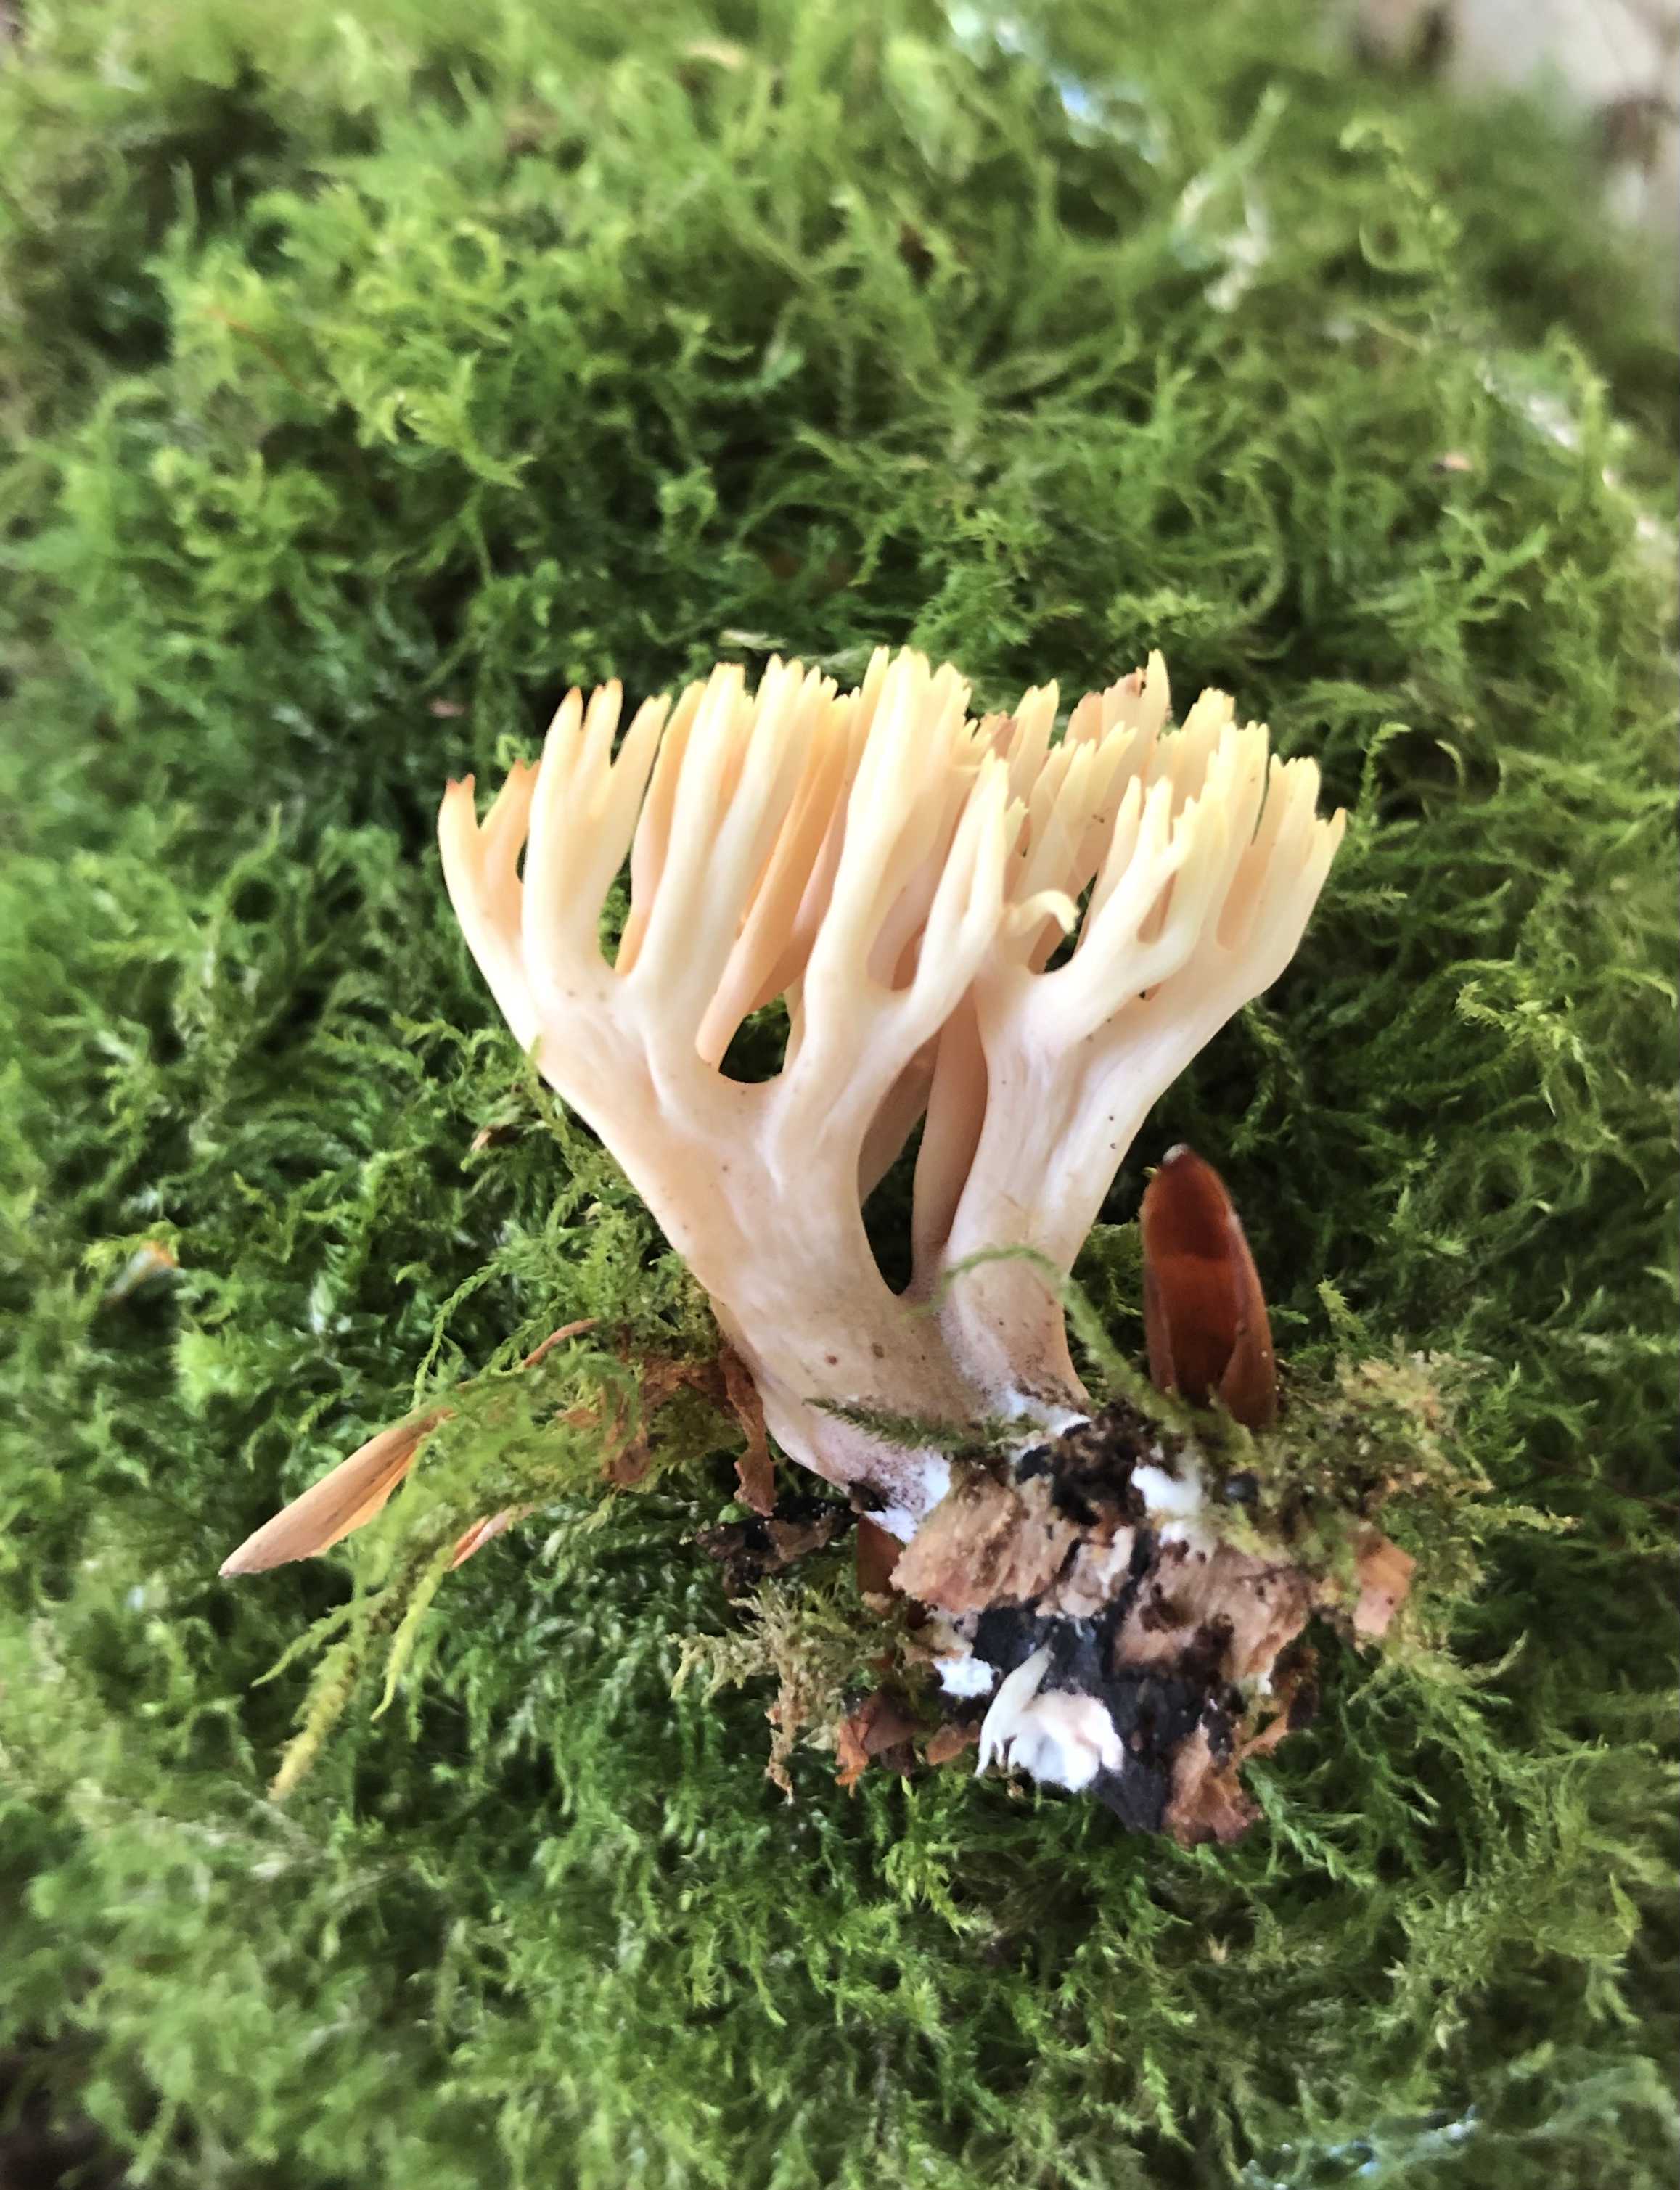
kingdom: Fungi
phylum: Basidiomycota
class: Agaricomycetes
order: Gomphales
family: Gomphaceae
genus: Ramaria
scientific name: Ramaria stricta
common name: rank koralsvamp
